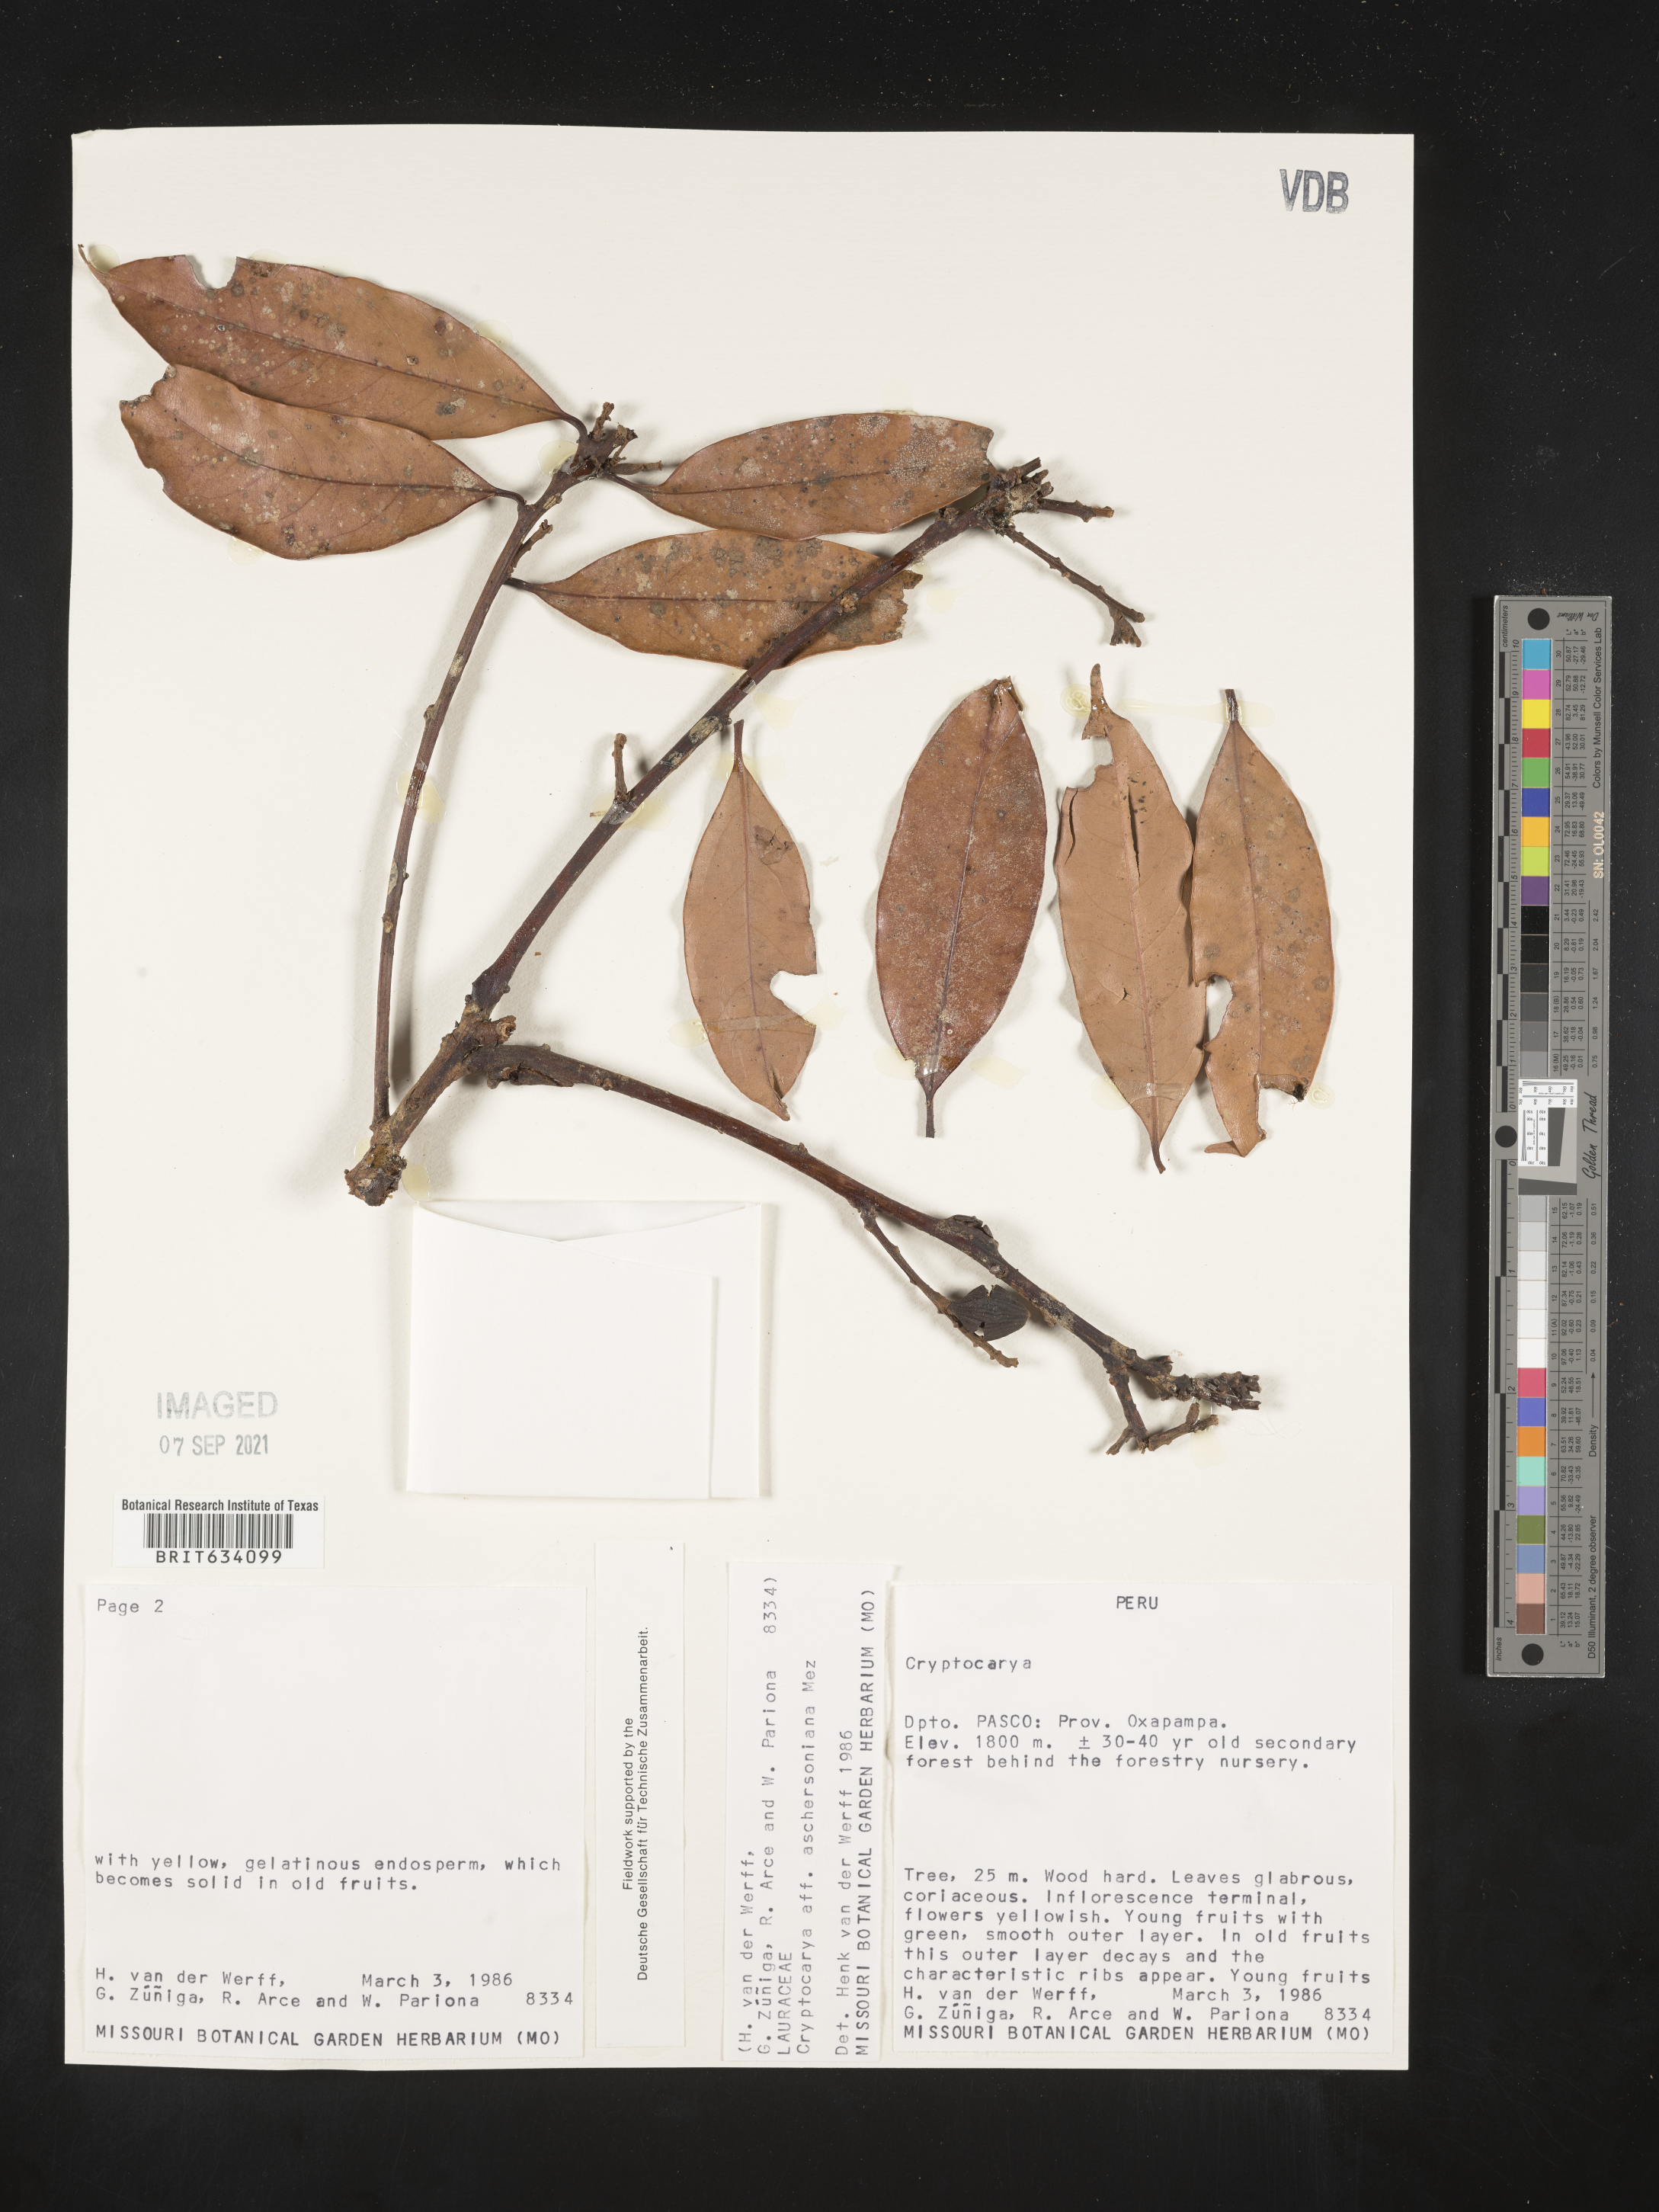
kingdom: Plantae
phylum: Tracheophyta
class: Magnoliopsida
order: Laurales
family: Lauraceae
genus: Cryptocarya
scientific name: Cryptocarya
